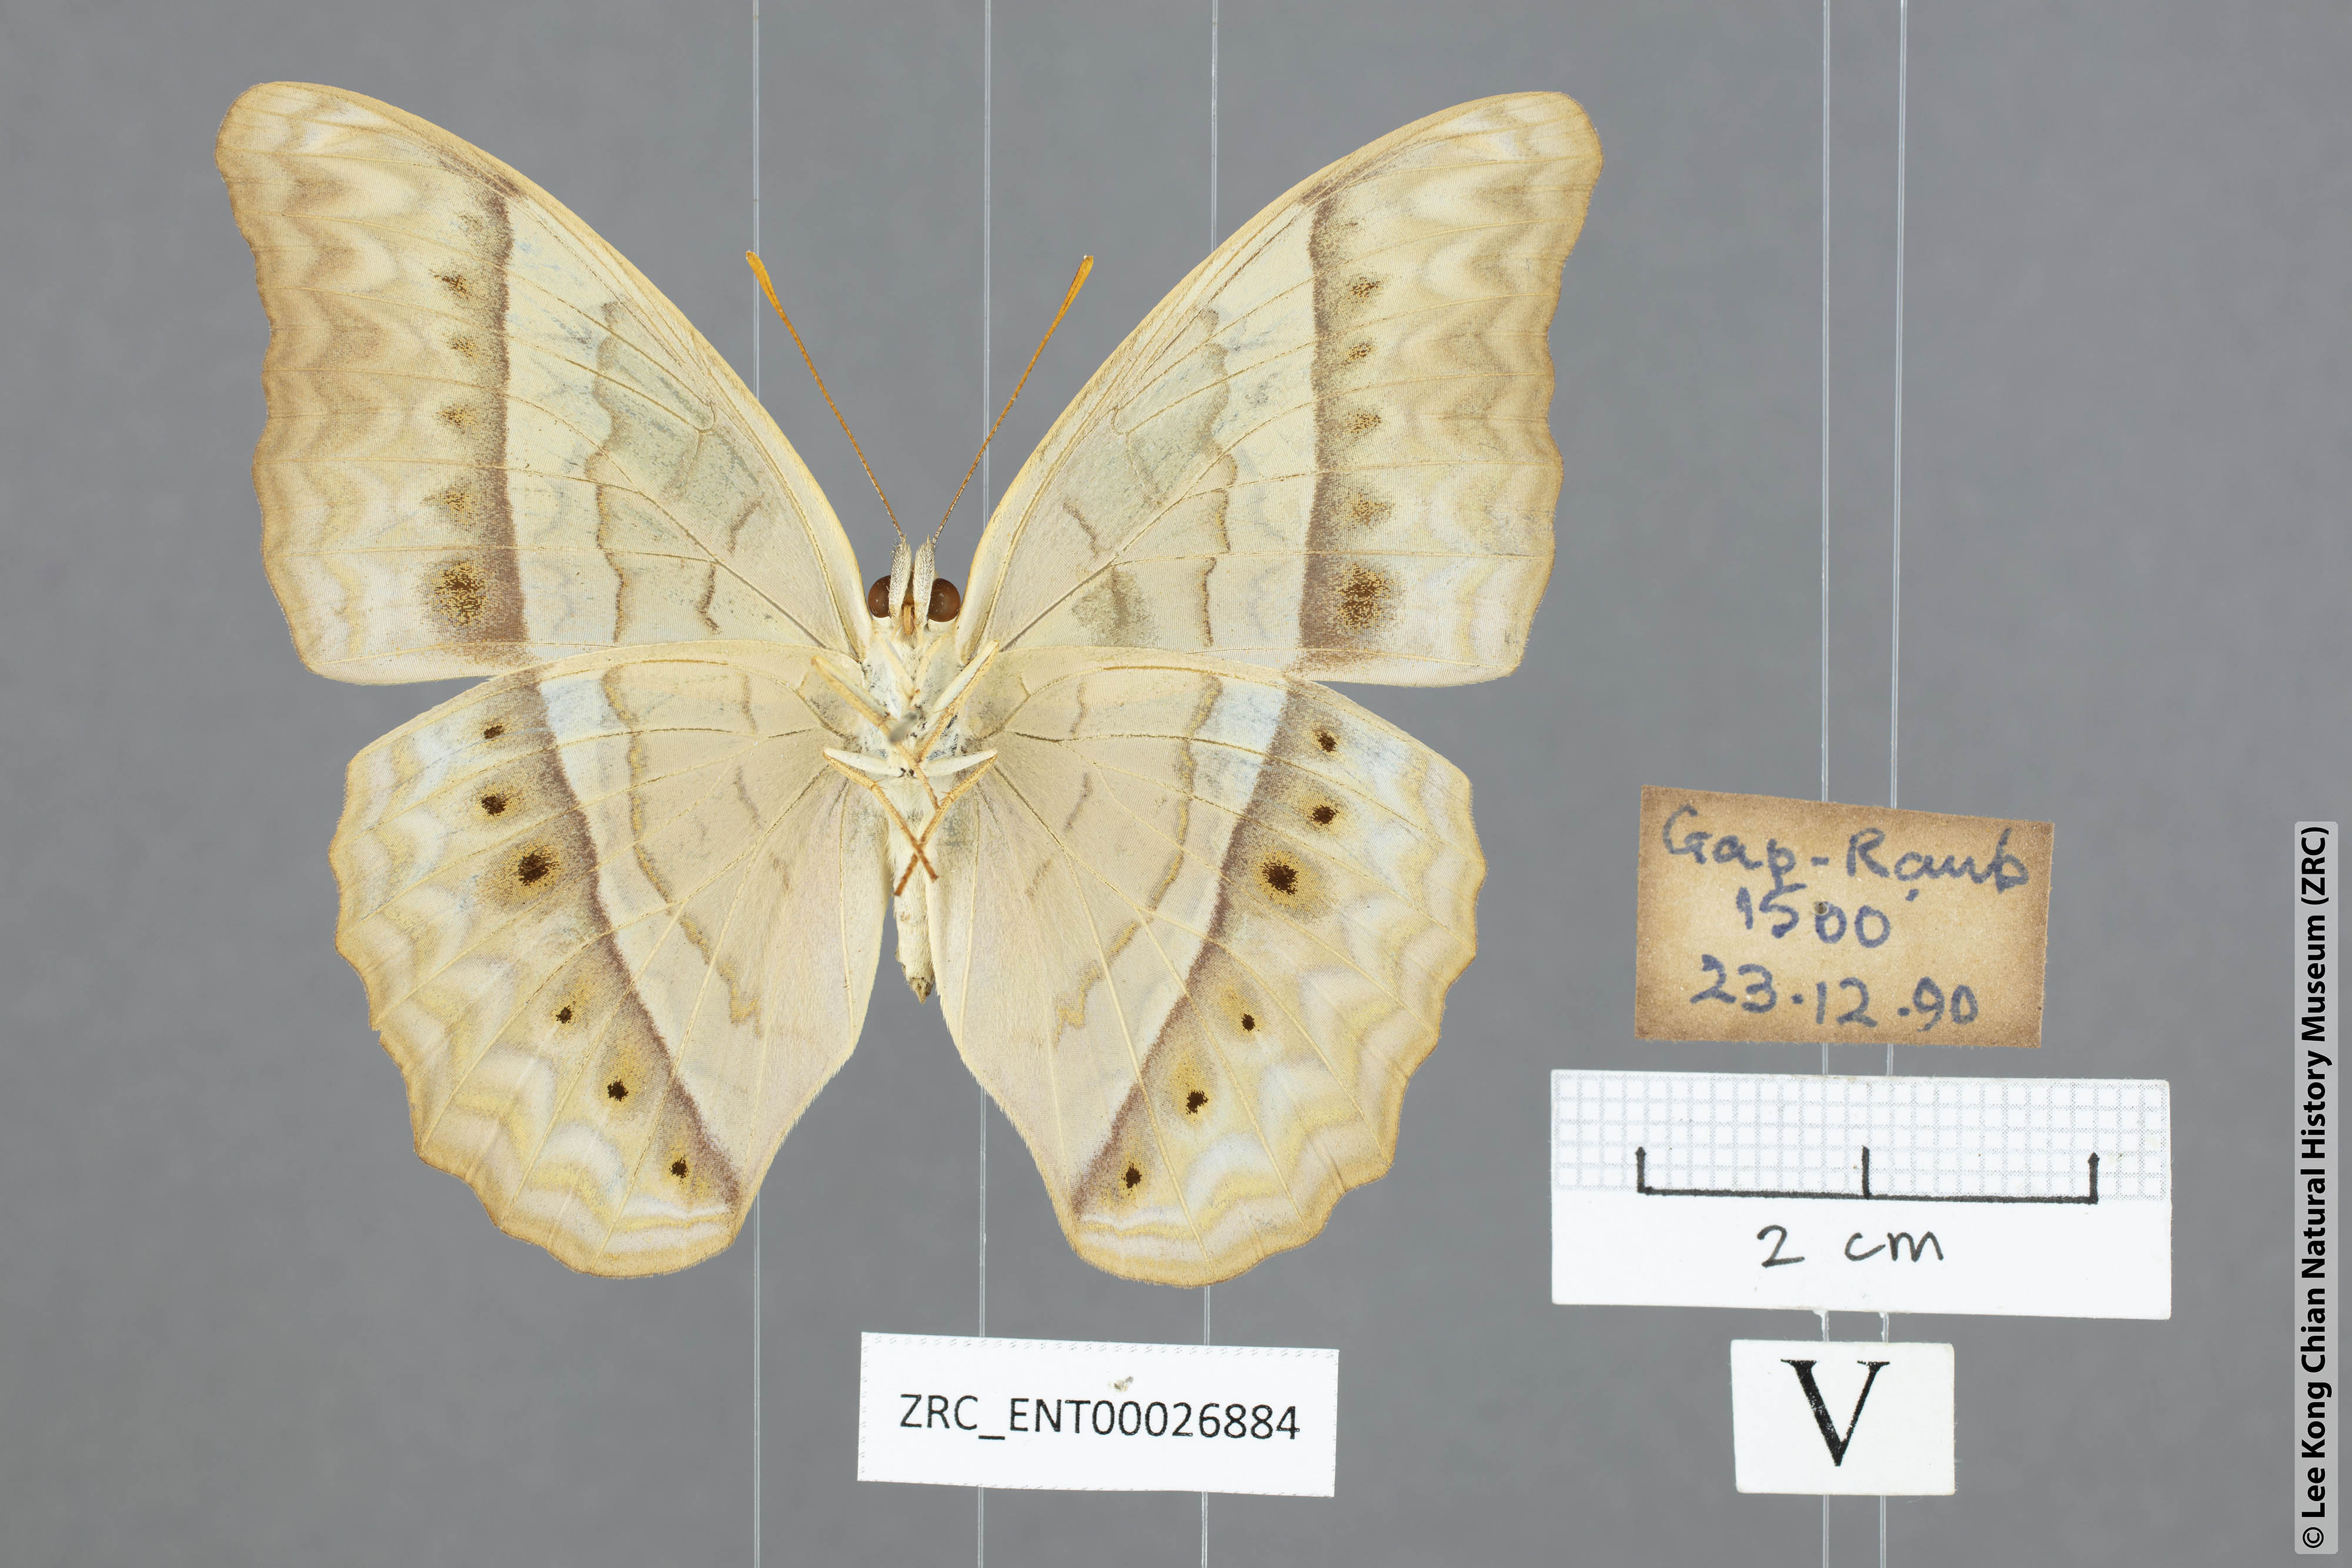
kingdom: Animalia
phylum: Arthropoda
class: Insecta
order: Lepidoptera
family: Nymphalidae
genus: Cirrochroa
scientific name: Cirrochroa tyche
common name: Common yeoman
